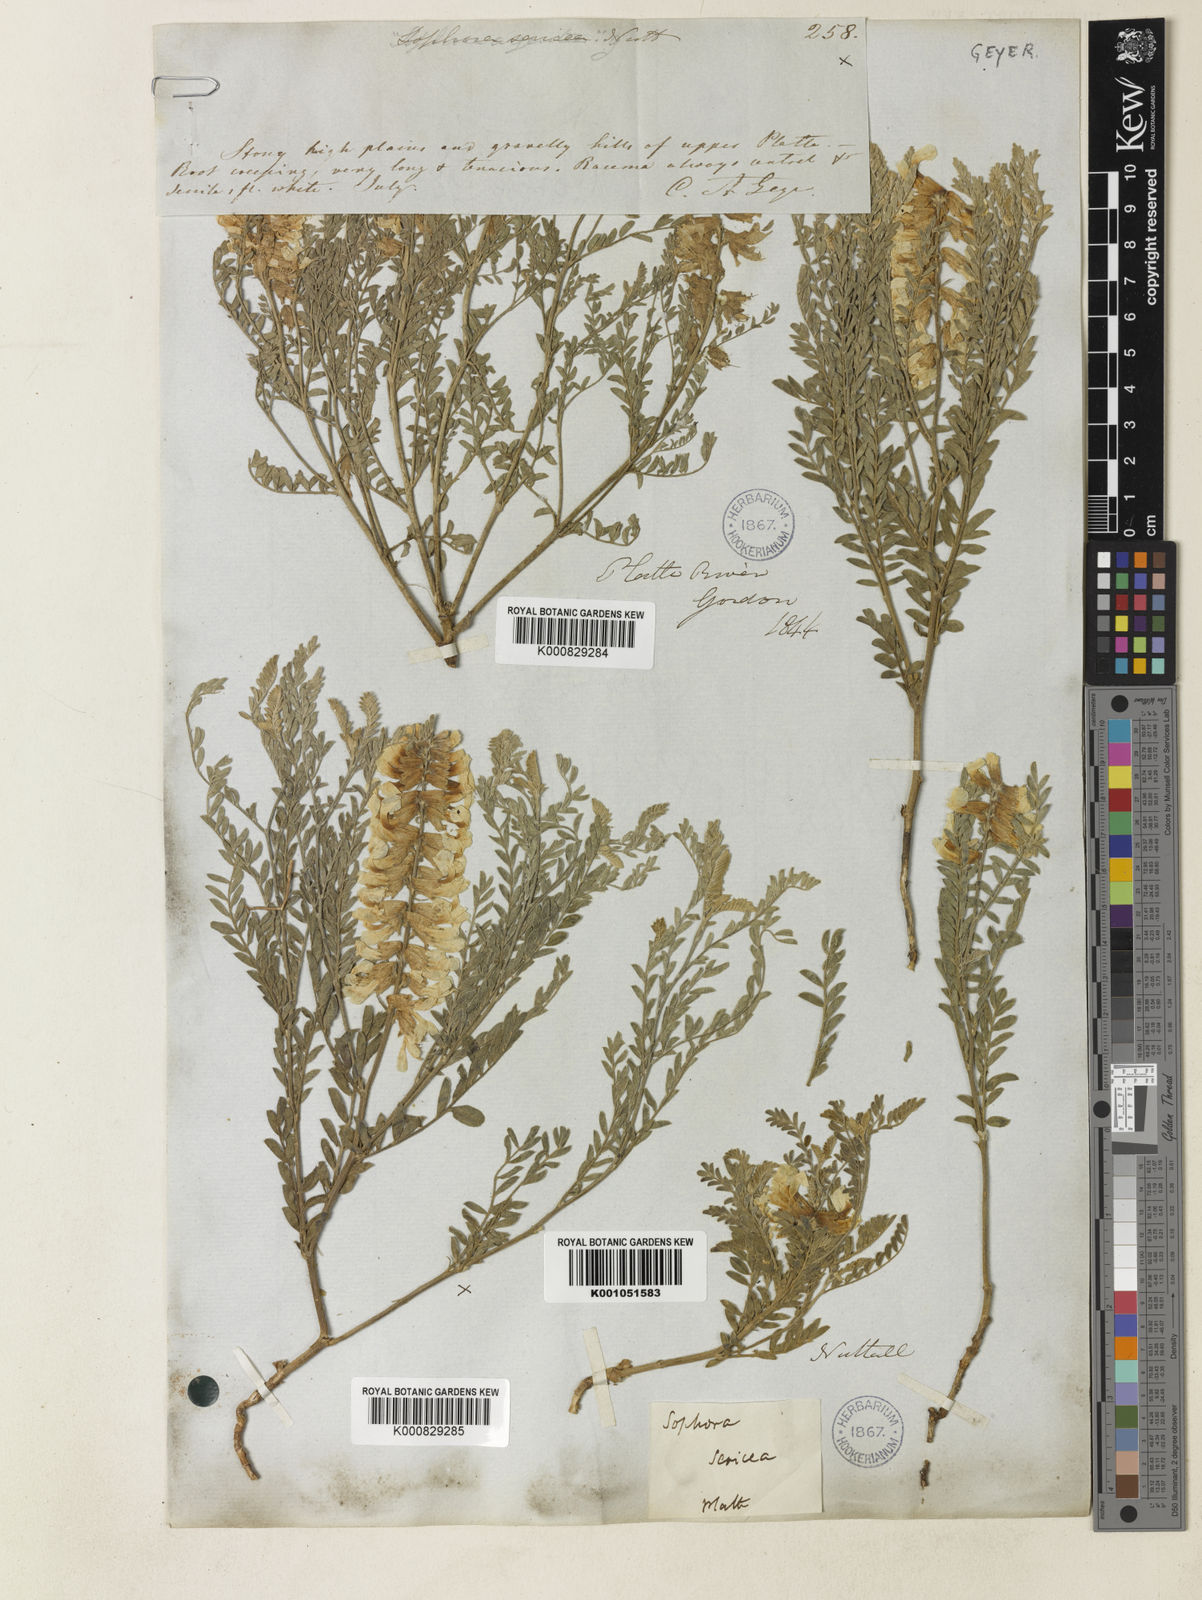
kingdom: Plantae
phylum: Tracheophyta
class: Magnoliopsida
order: Fabales
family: Fabaceae
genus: Sophora
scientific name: Sophora nuttalliana
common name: Silky sophora
